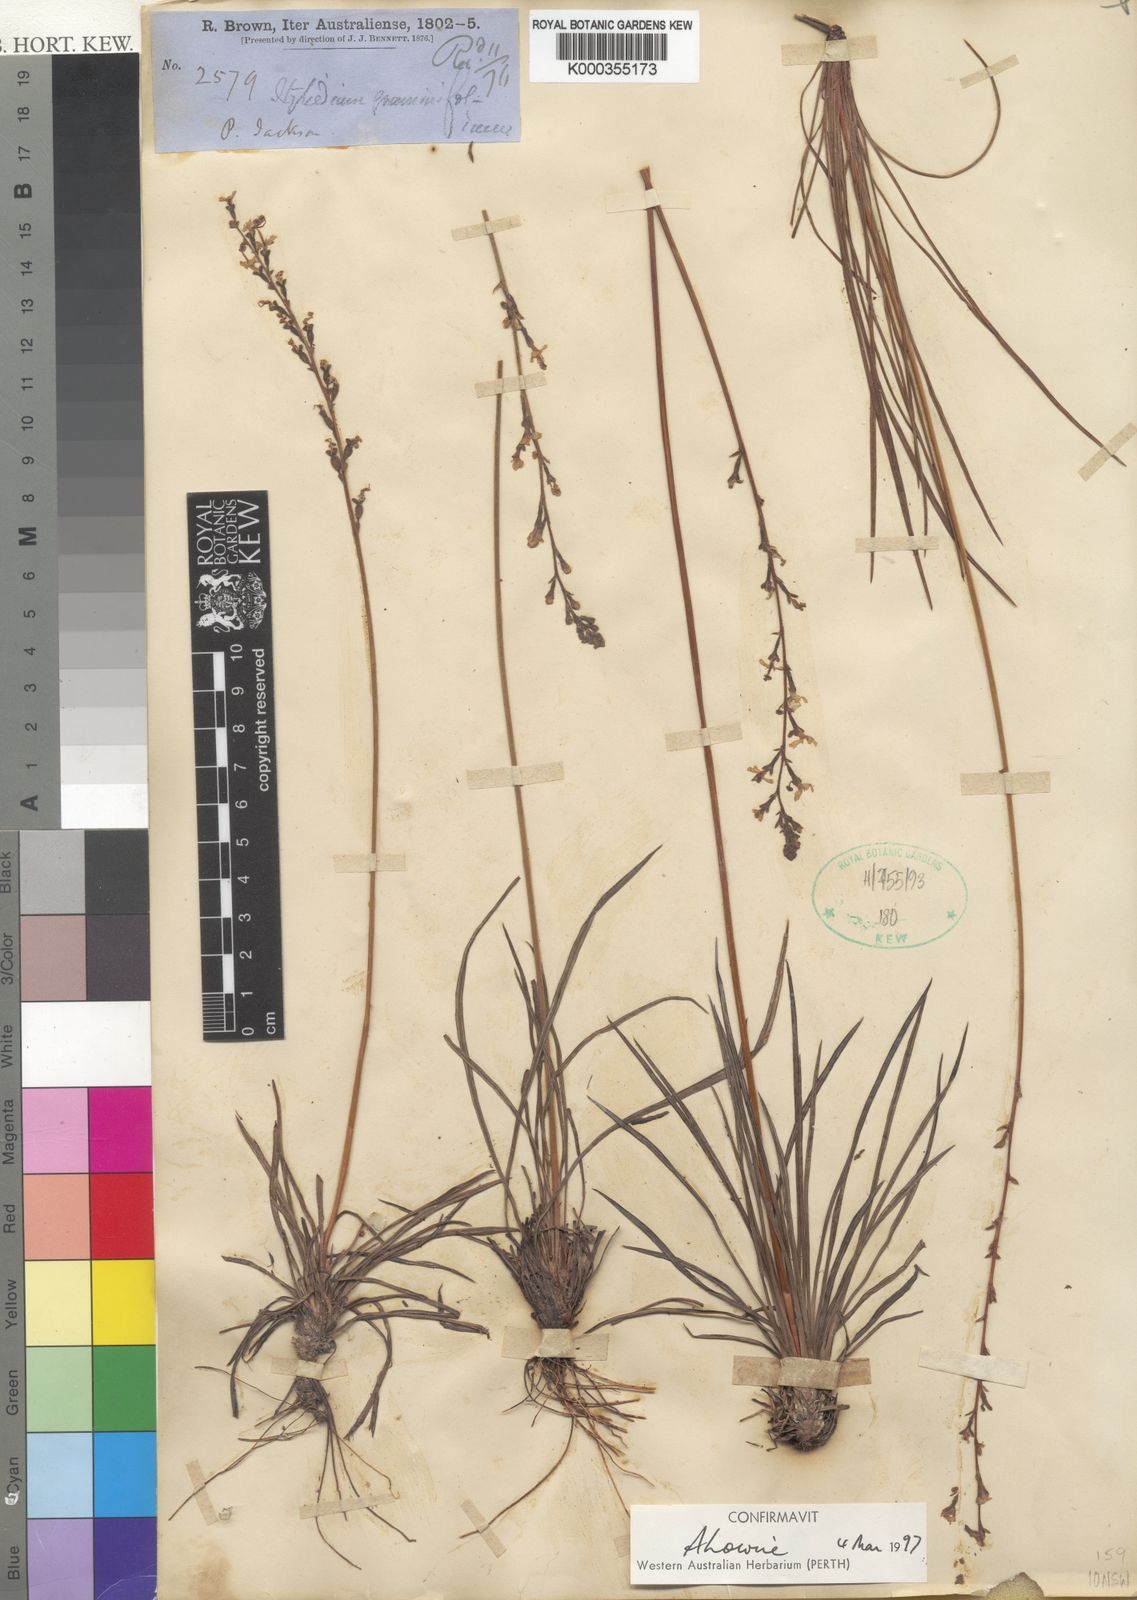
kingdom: Plantae
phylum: Tracheophyta
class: Magnoliopsida
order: Asterales
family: Stylidiaceae
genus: Stylidium
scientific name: Stylidium graminifolium
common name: Grass triggerplant
